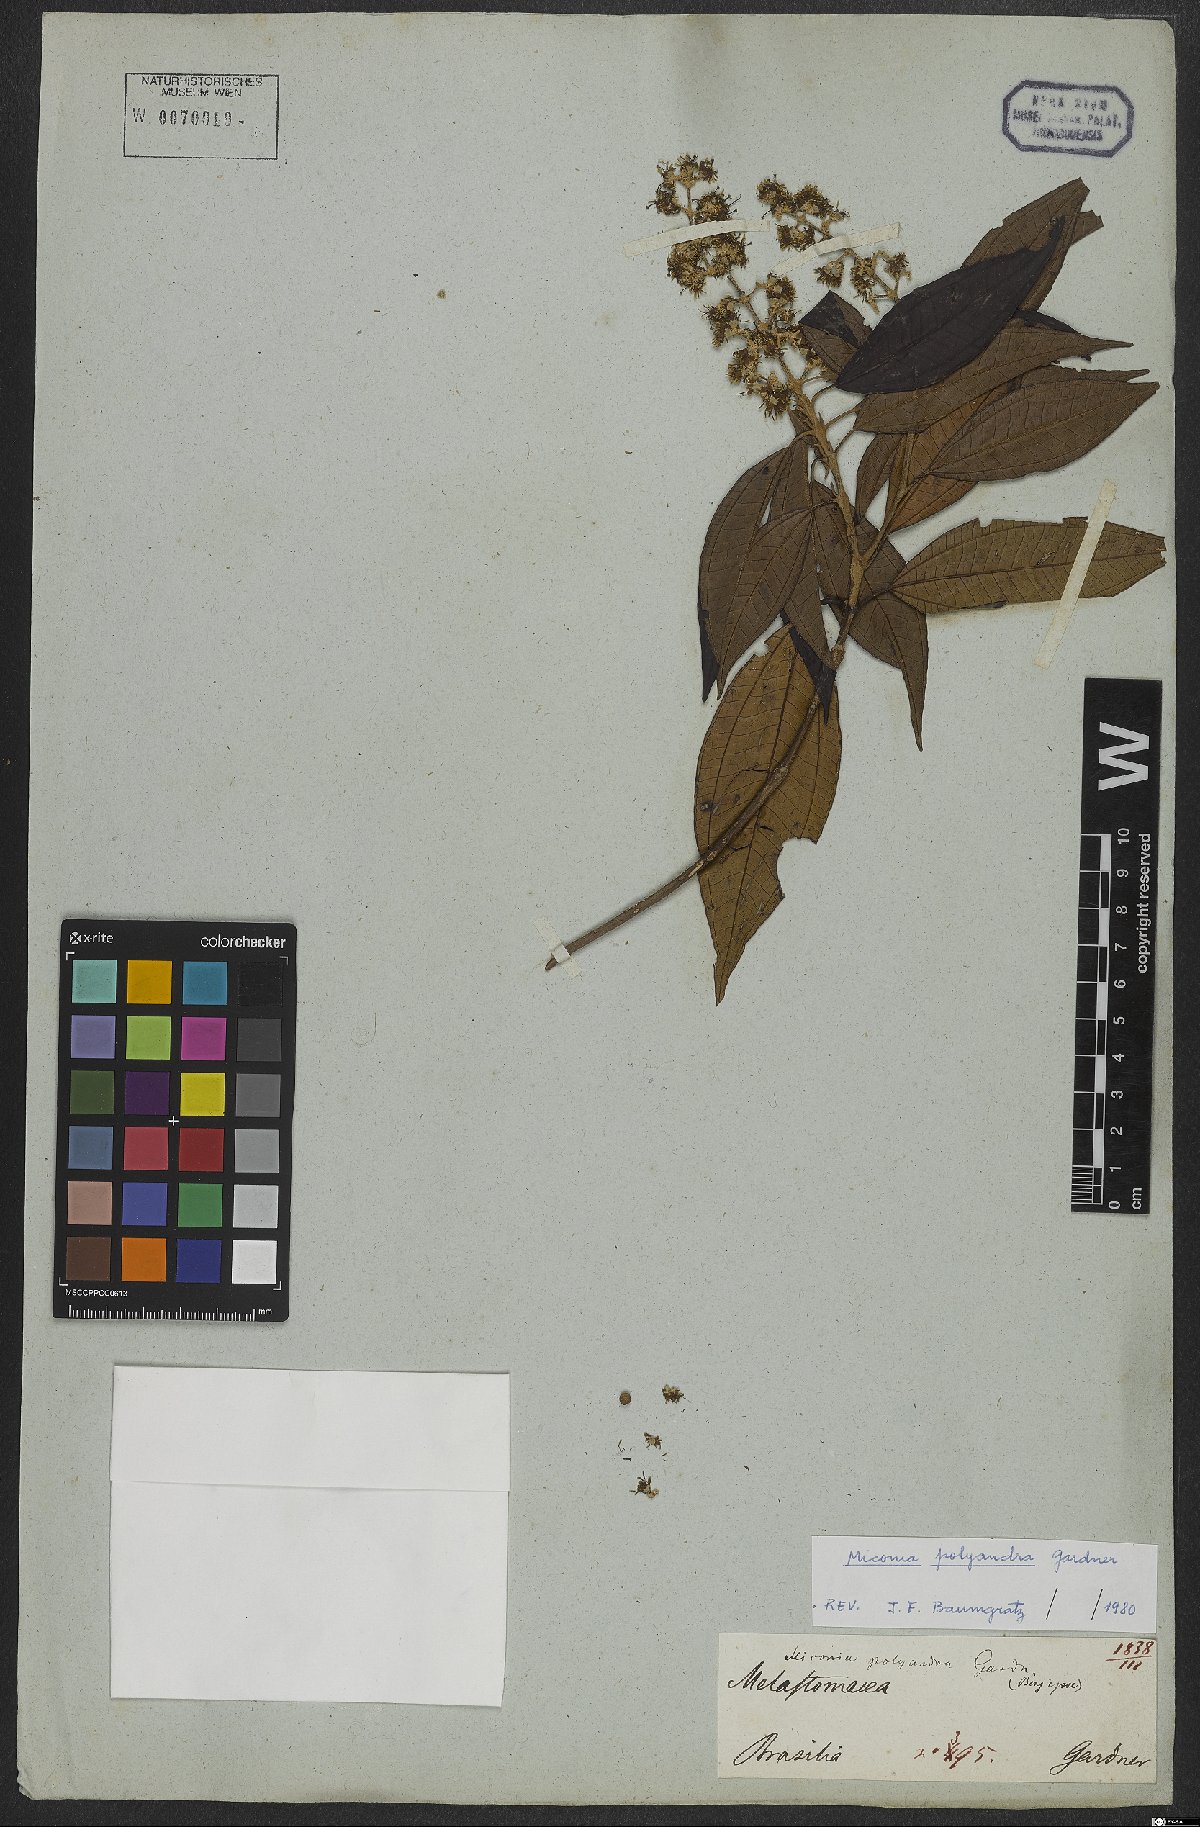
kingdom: Plantae
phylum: Tracheophyta
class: Magnoliopsida
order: Myrtales
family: Melastomataceae
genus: Miconia
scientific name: Miconia polyandra
